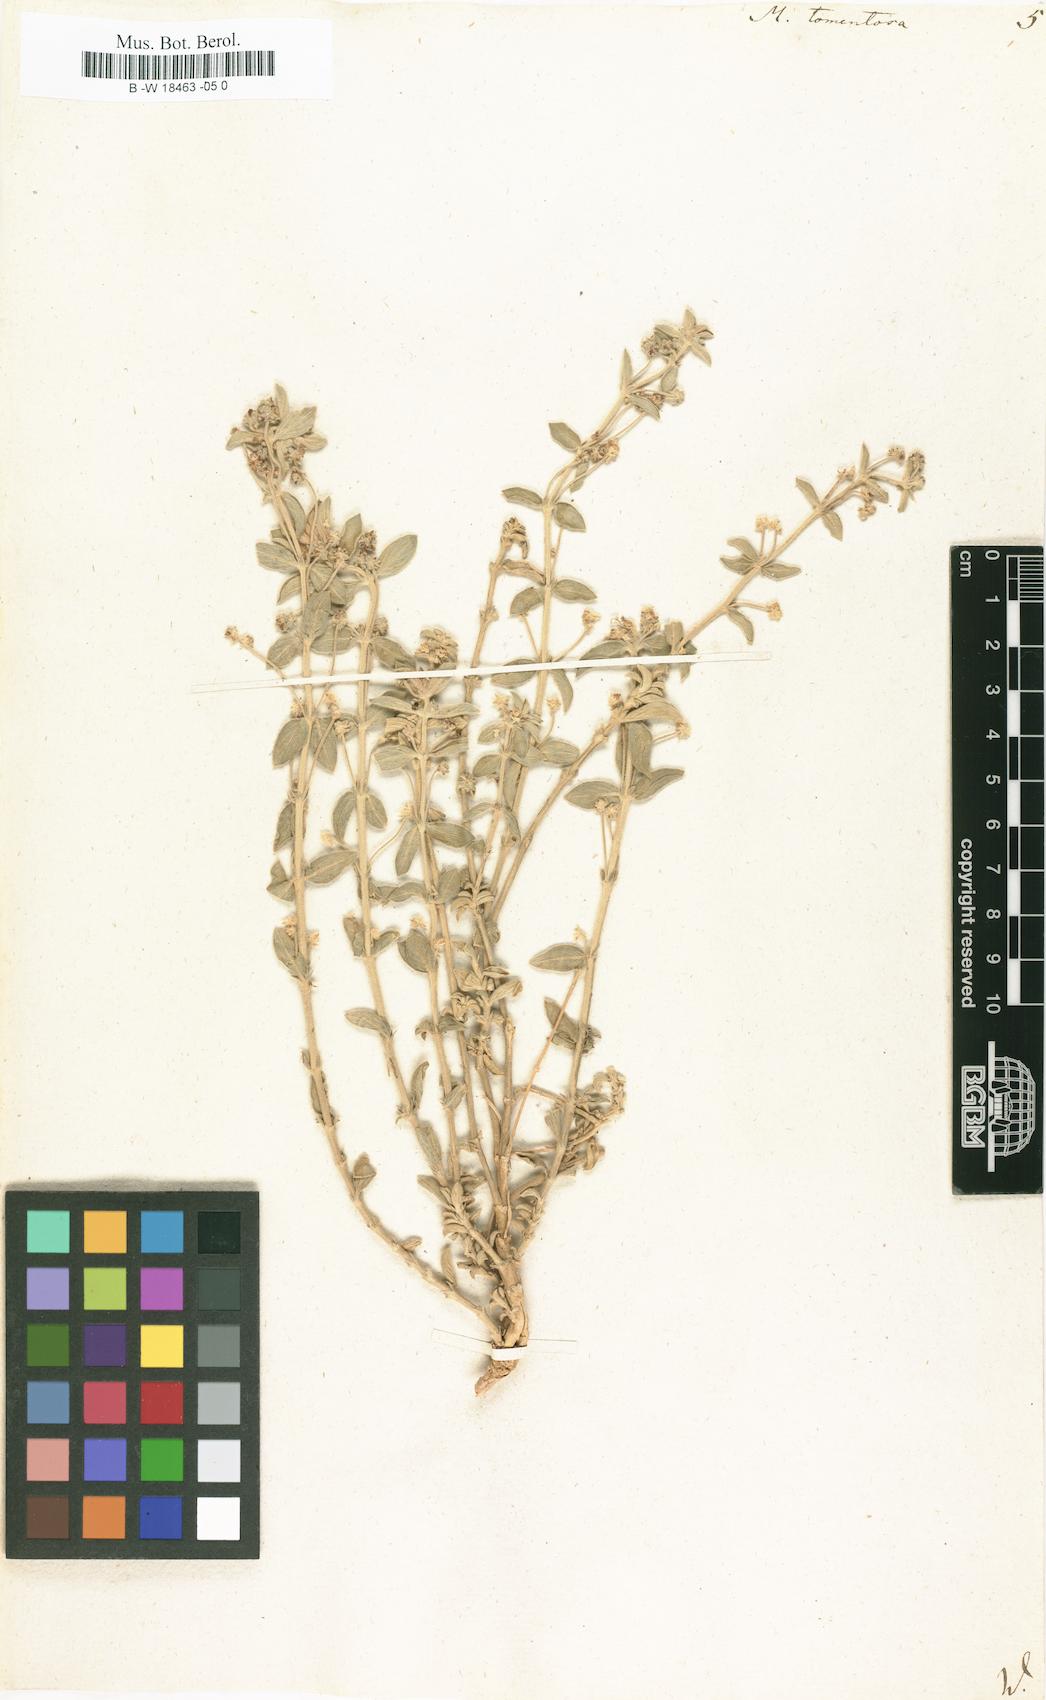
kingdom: Plantae
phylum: Tracheophyta
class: Magnoliopsida
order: Malpighiales
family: Euphorbiaceae
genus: Mercurialis
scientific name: Mercurialis tomentosa
